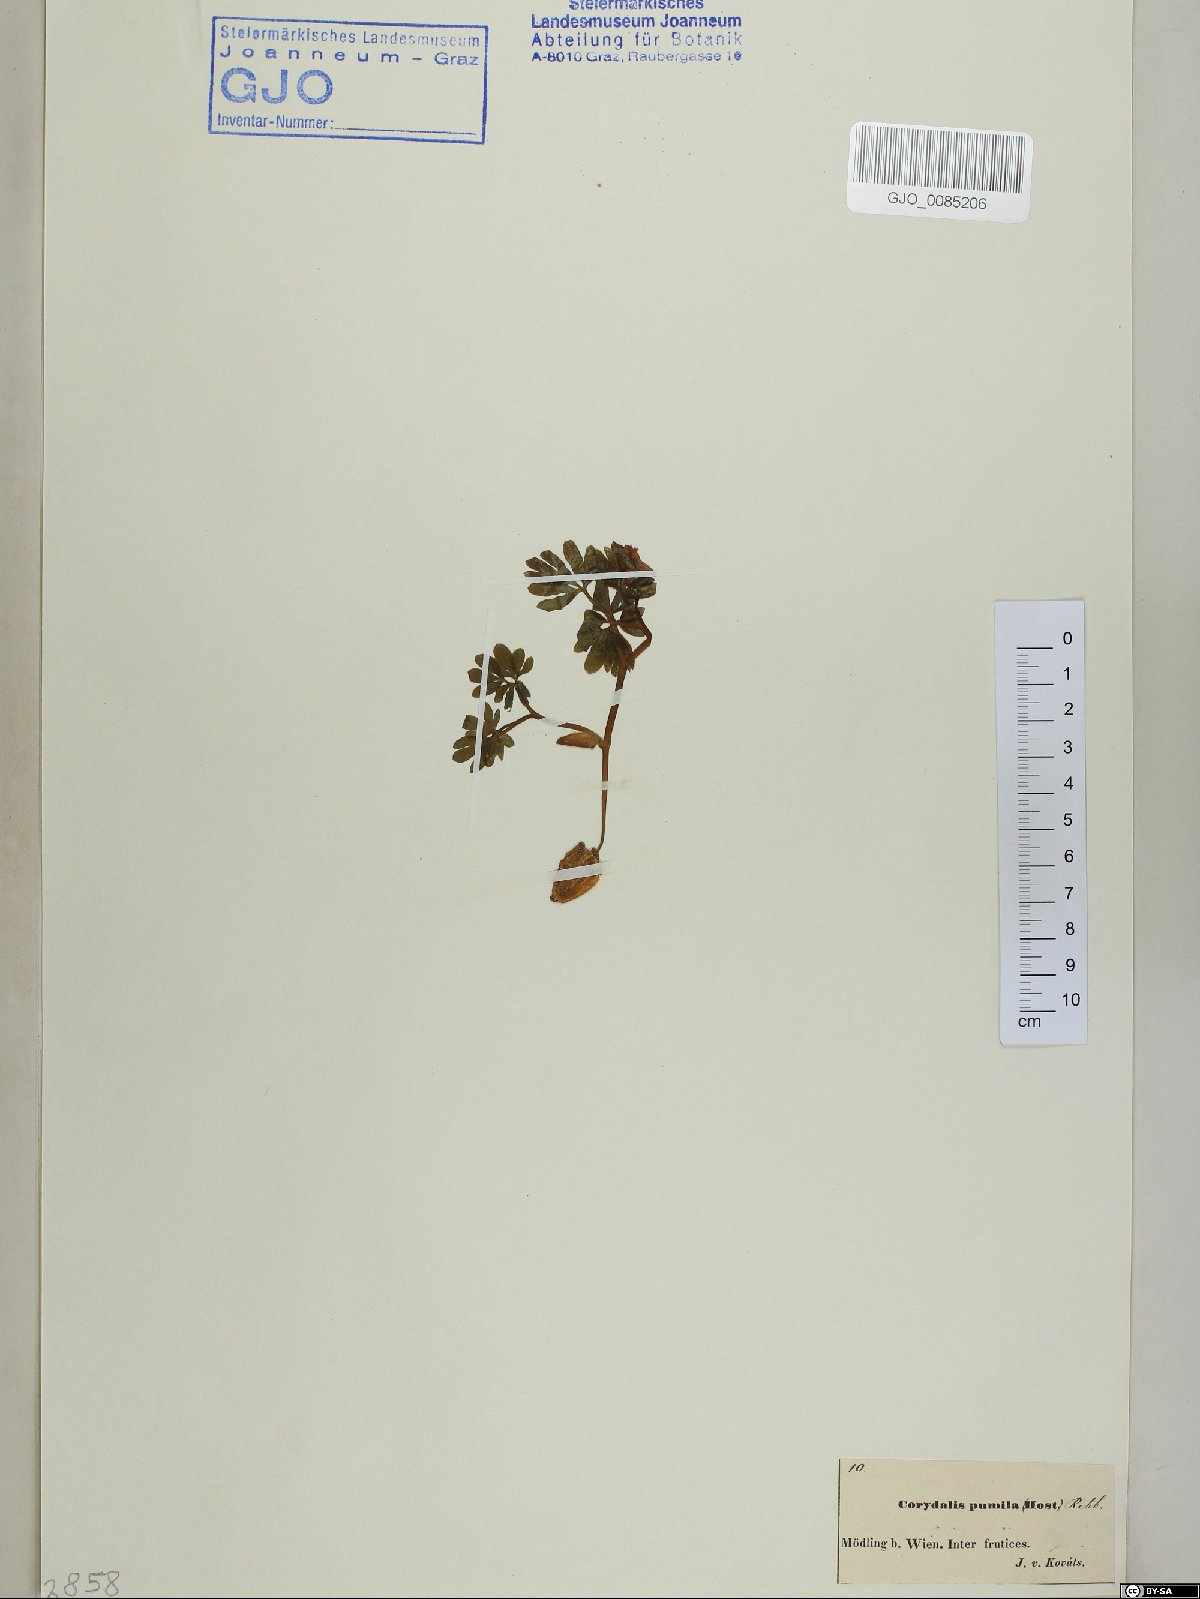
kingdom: Plantae
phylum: Tracheophyta
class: Magnoliopsida
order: Ranunculales
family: Papaveraceae
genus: Corydalis
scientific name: Corydalis pumila
